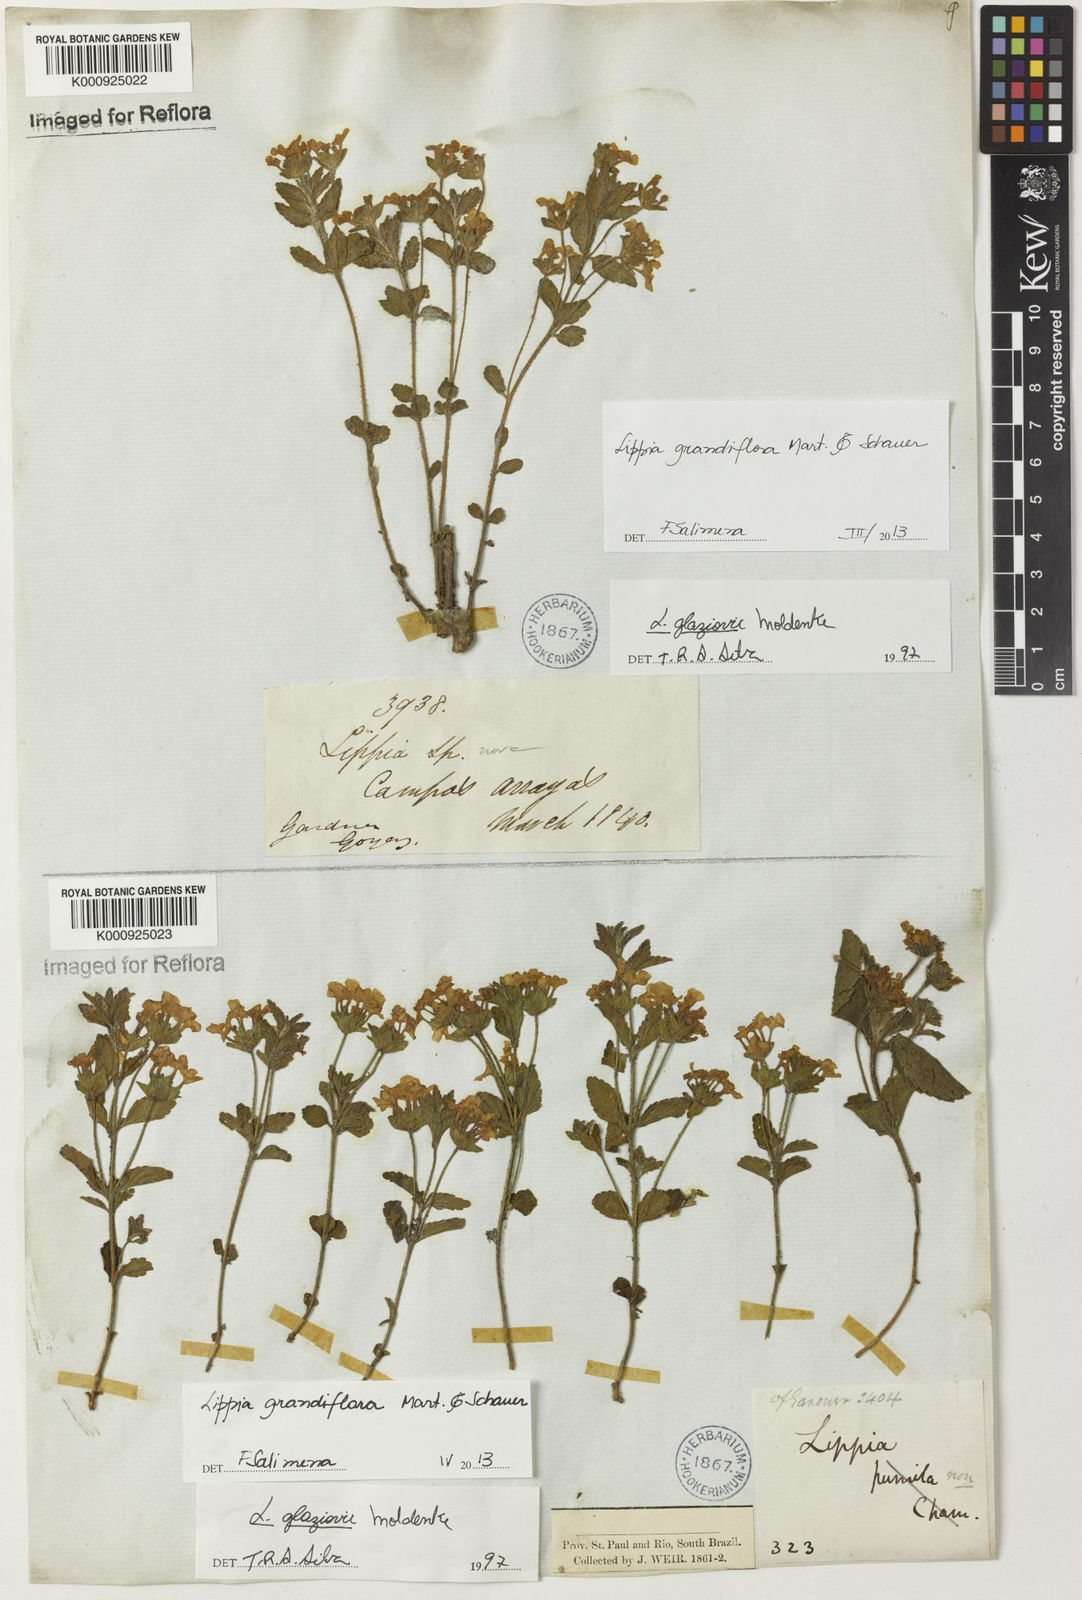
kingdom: Plantae
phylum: Tracheophyta
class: Magnoliopsida
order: Lamiales
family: Verbenaceae
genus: Lippia
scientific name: Lippia grandiflora
